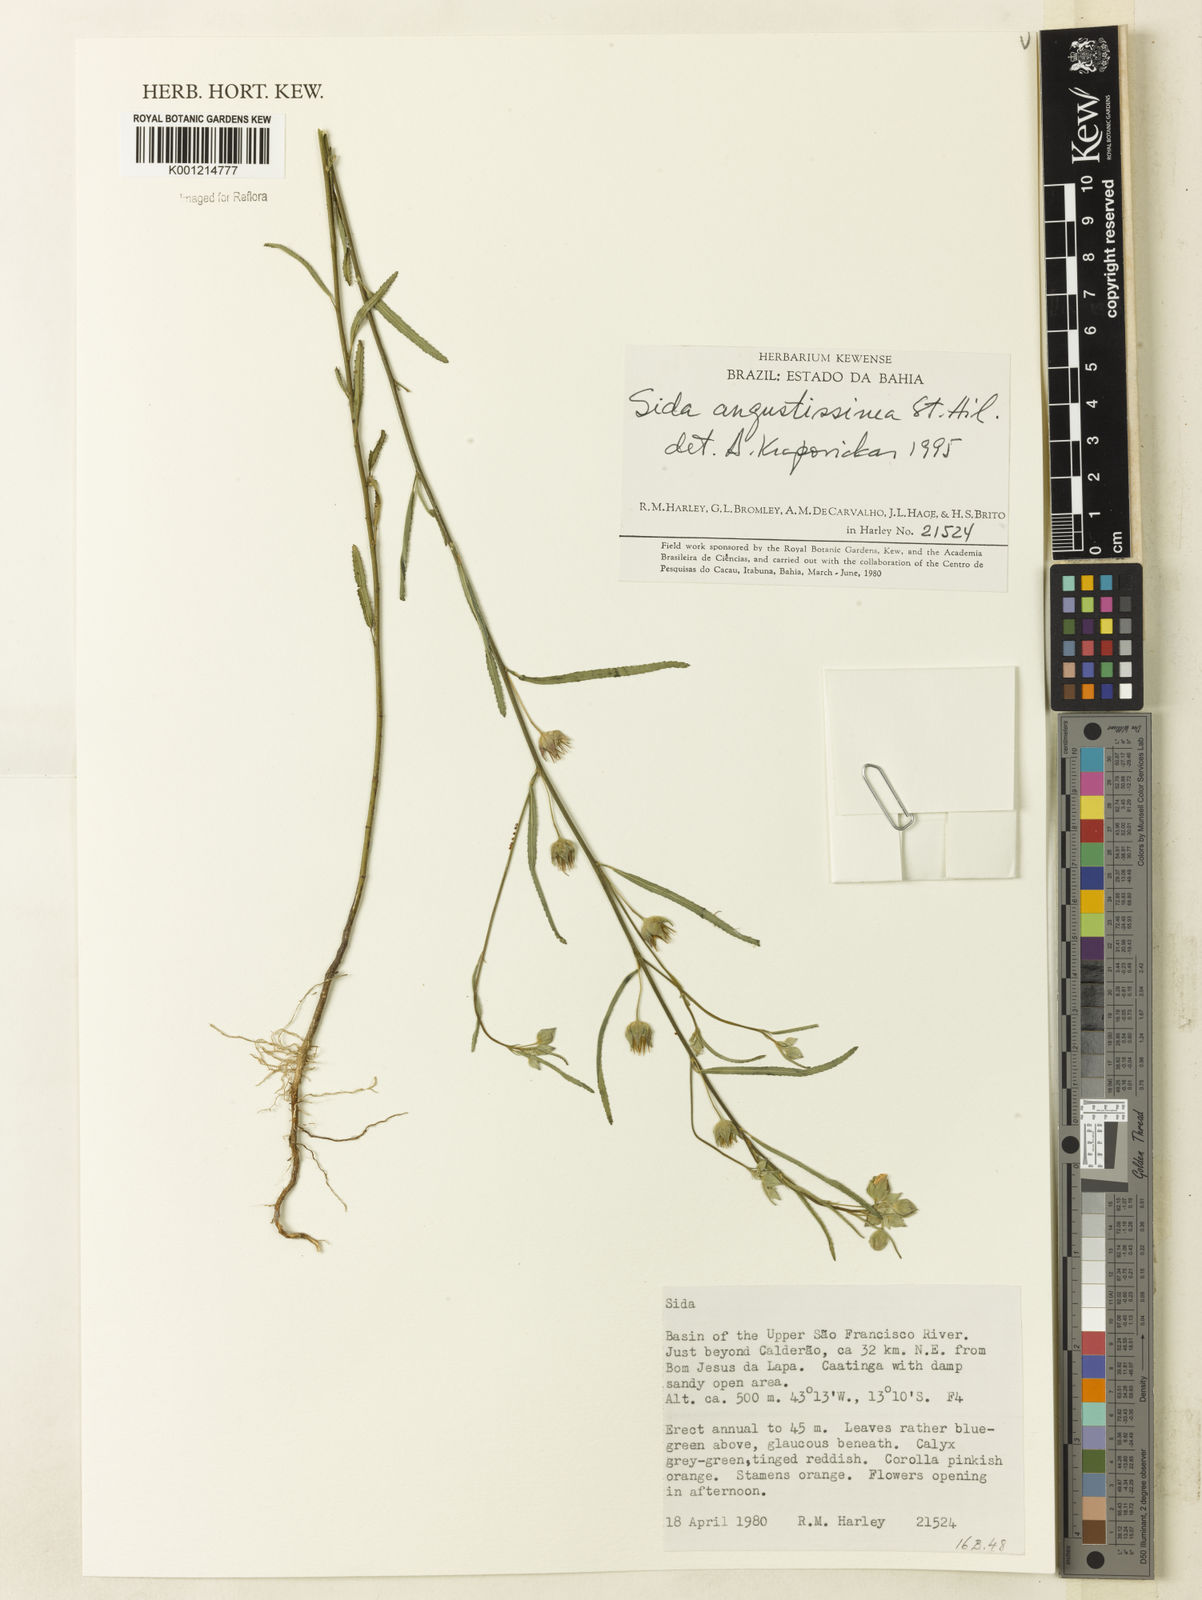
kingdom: Plantae
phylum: Tracheophyta
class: Magnoliopsida
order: Malvales
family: Malvaceae
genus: Sida
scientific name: Sida angustissima
